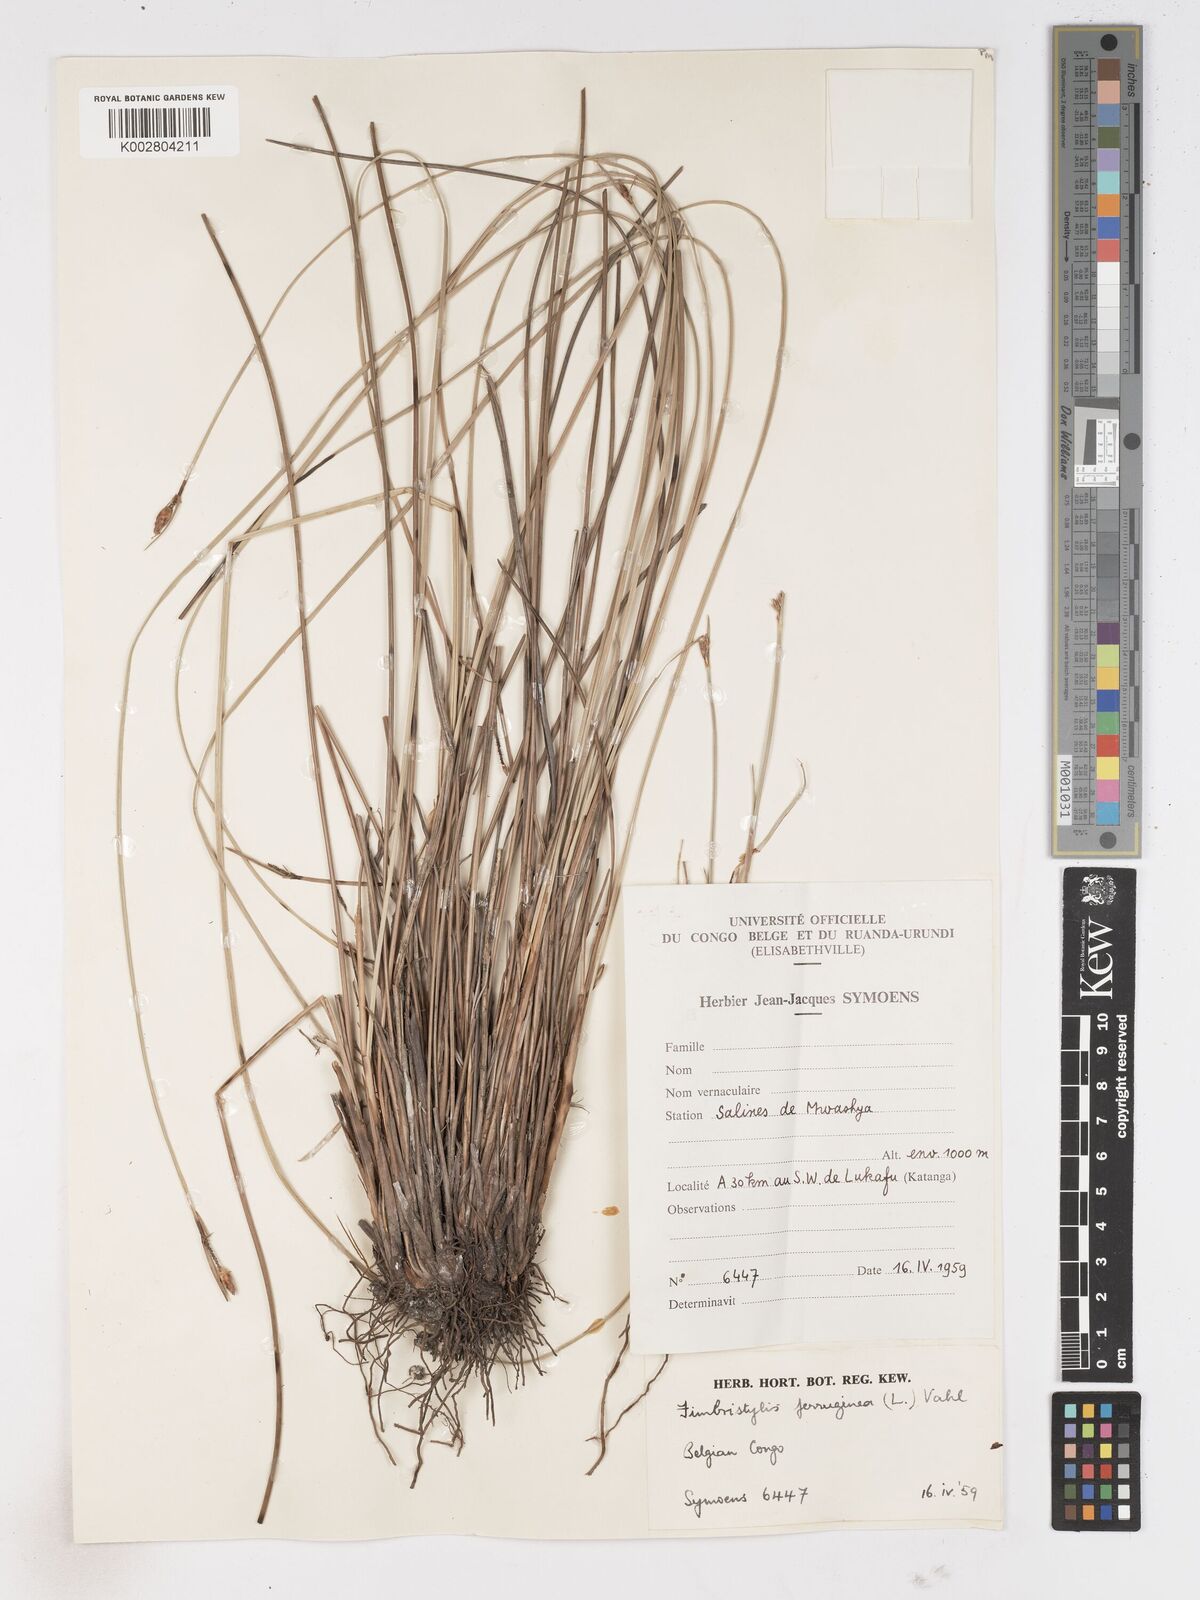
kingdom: Plantae
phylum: Tracheophyta
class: Liliopsida
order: Poales
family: Cyperaceae
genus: Fimbristylis
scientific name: Fimbristylis ferruginea
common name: West indian fimbry
